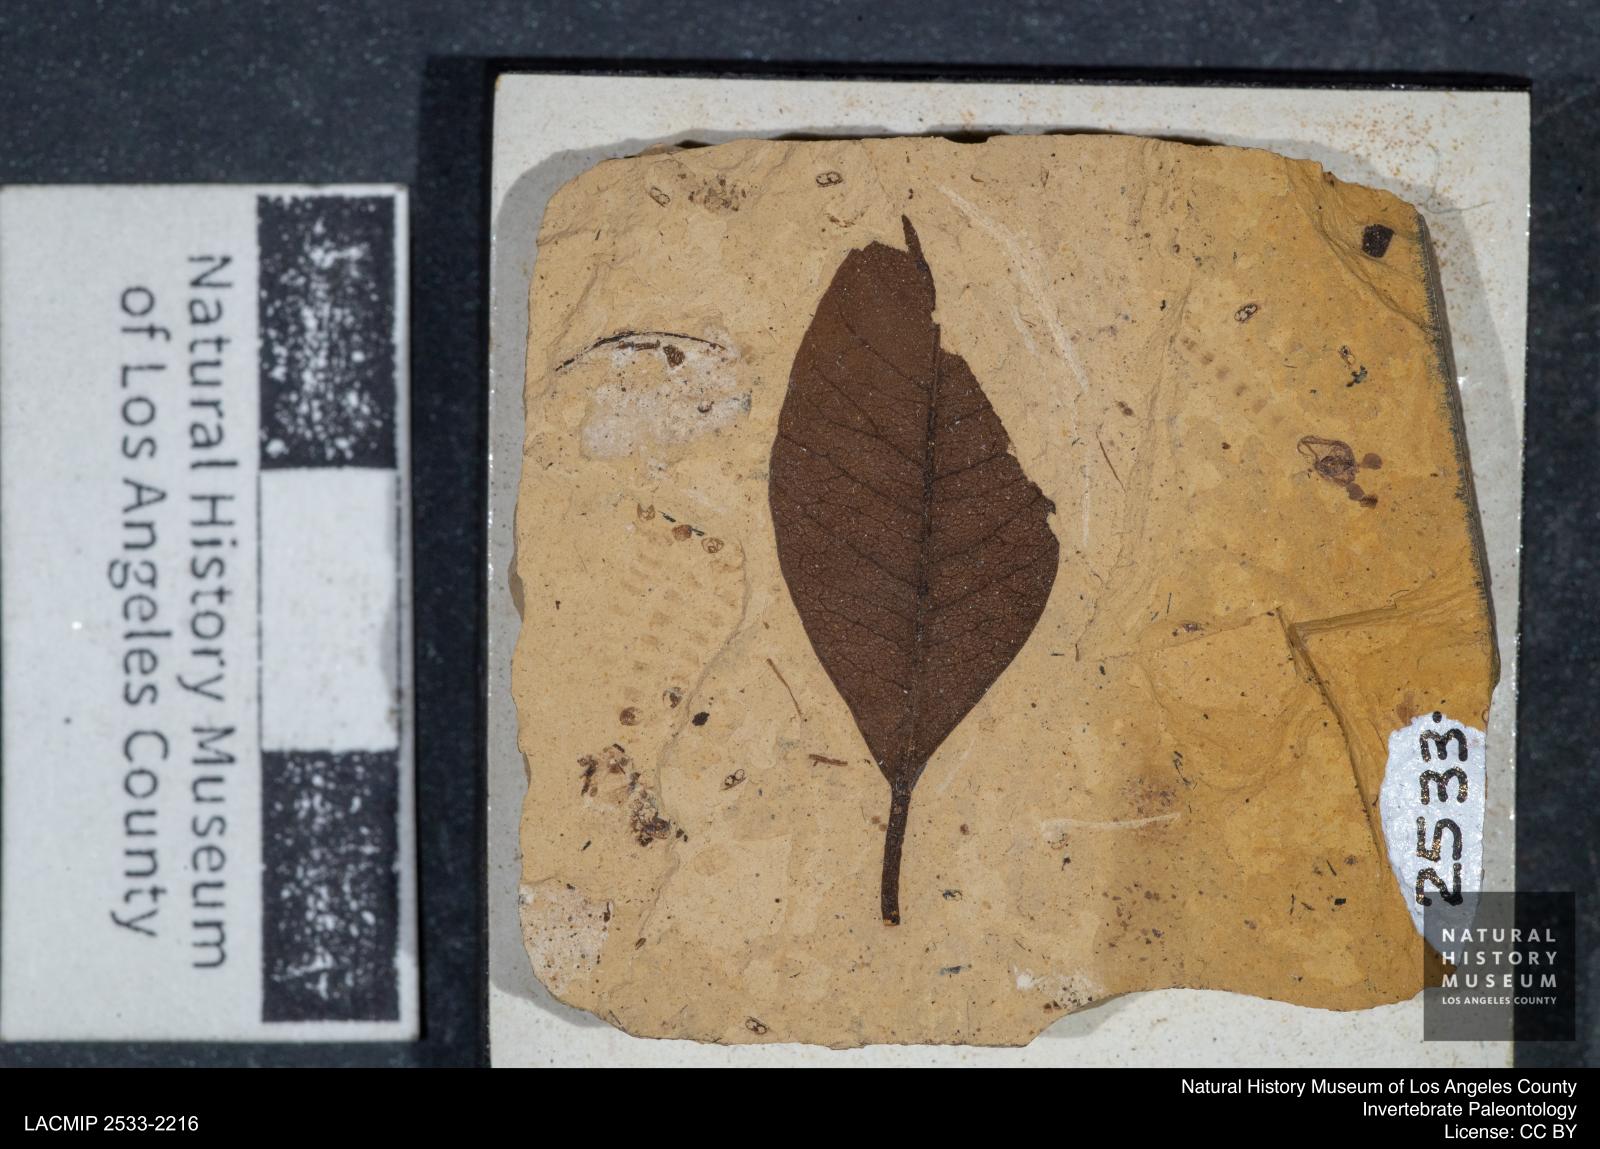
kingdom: Animalia
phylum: Arthropoda
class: Insecta
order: Diptera
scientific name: Diptera
